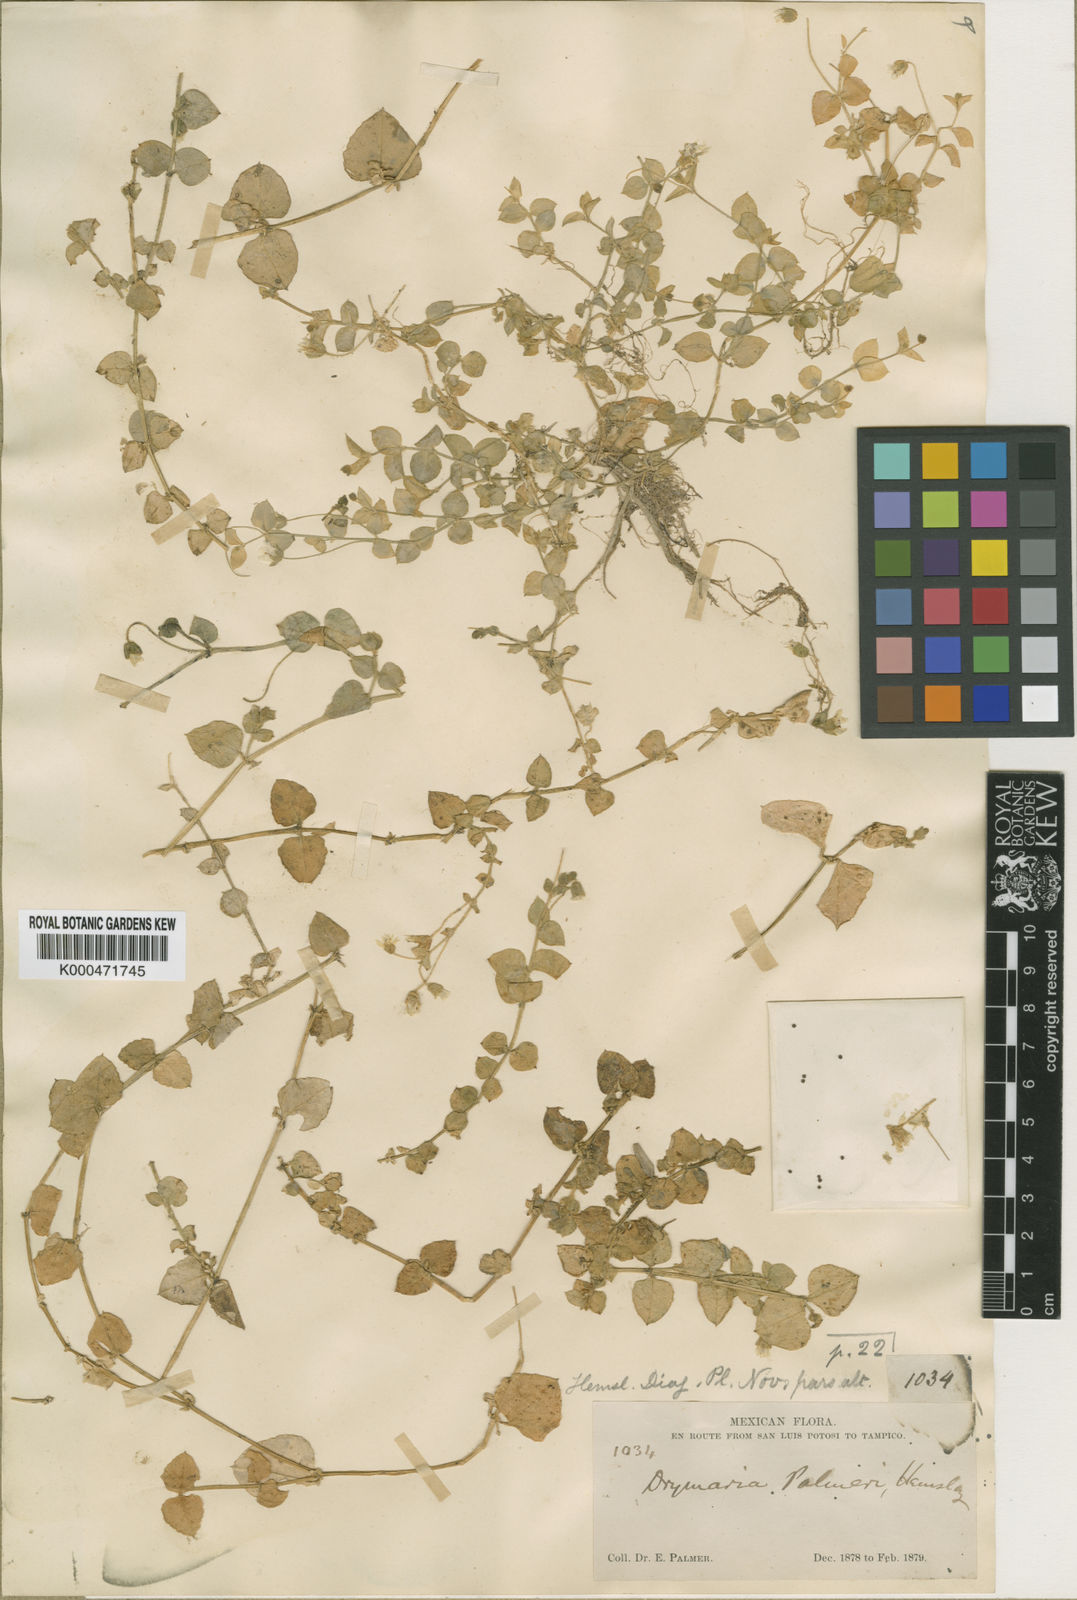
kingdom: Plantae
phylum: Tracheophyta
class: Magnoliopsida
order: Caryophyllales
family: Caryophyllaceae
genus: Stellaria
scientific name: Stellaria ovata
